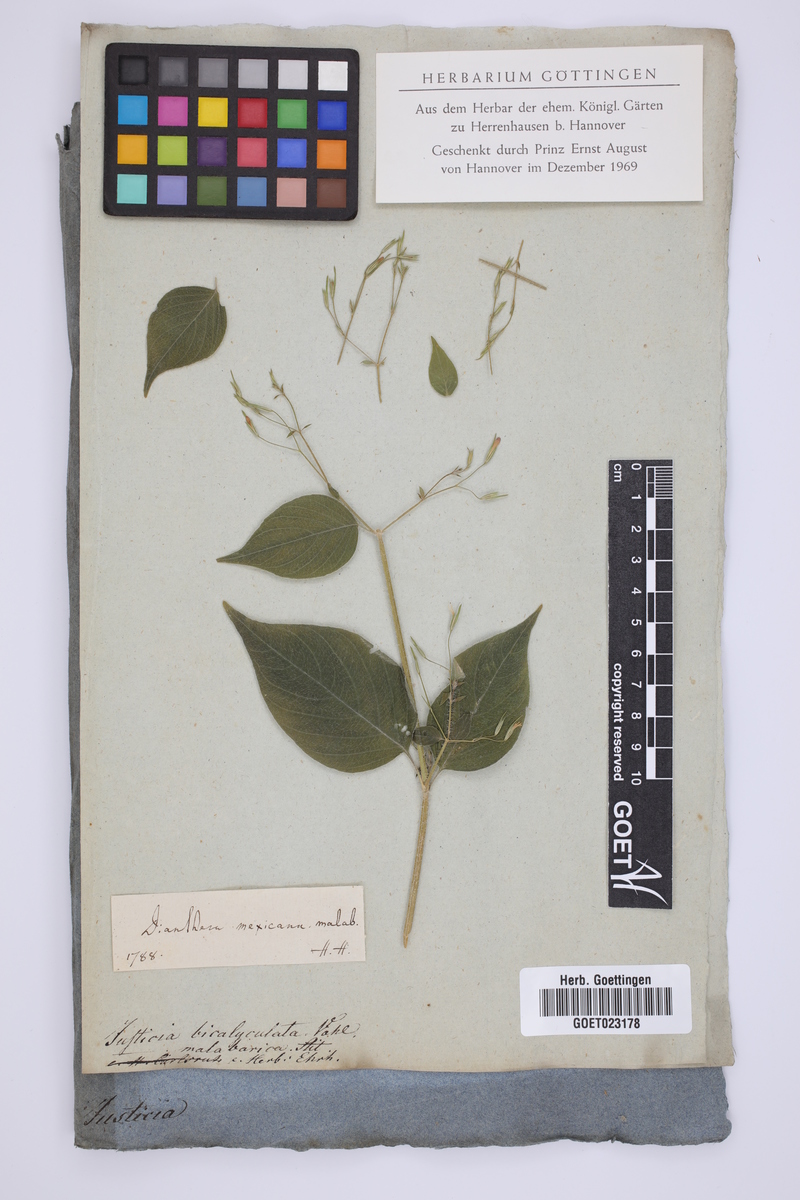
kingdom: Plantae
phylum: Tracheophyta
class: Magnoliopsida
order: Lamiales
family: Acanthaceae
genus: Dianthera
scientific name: Dianthera candelariae
